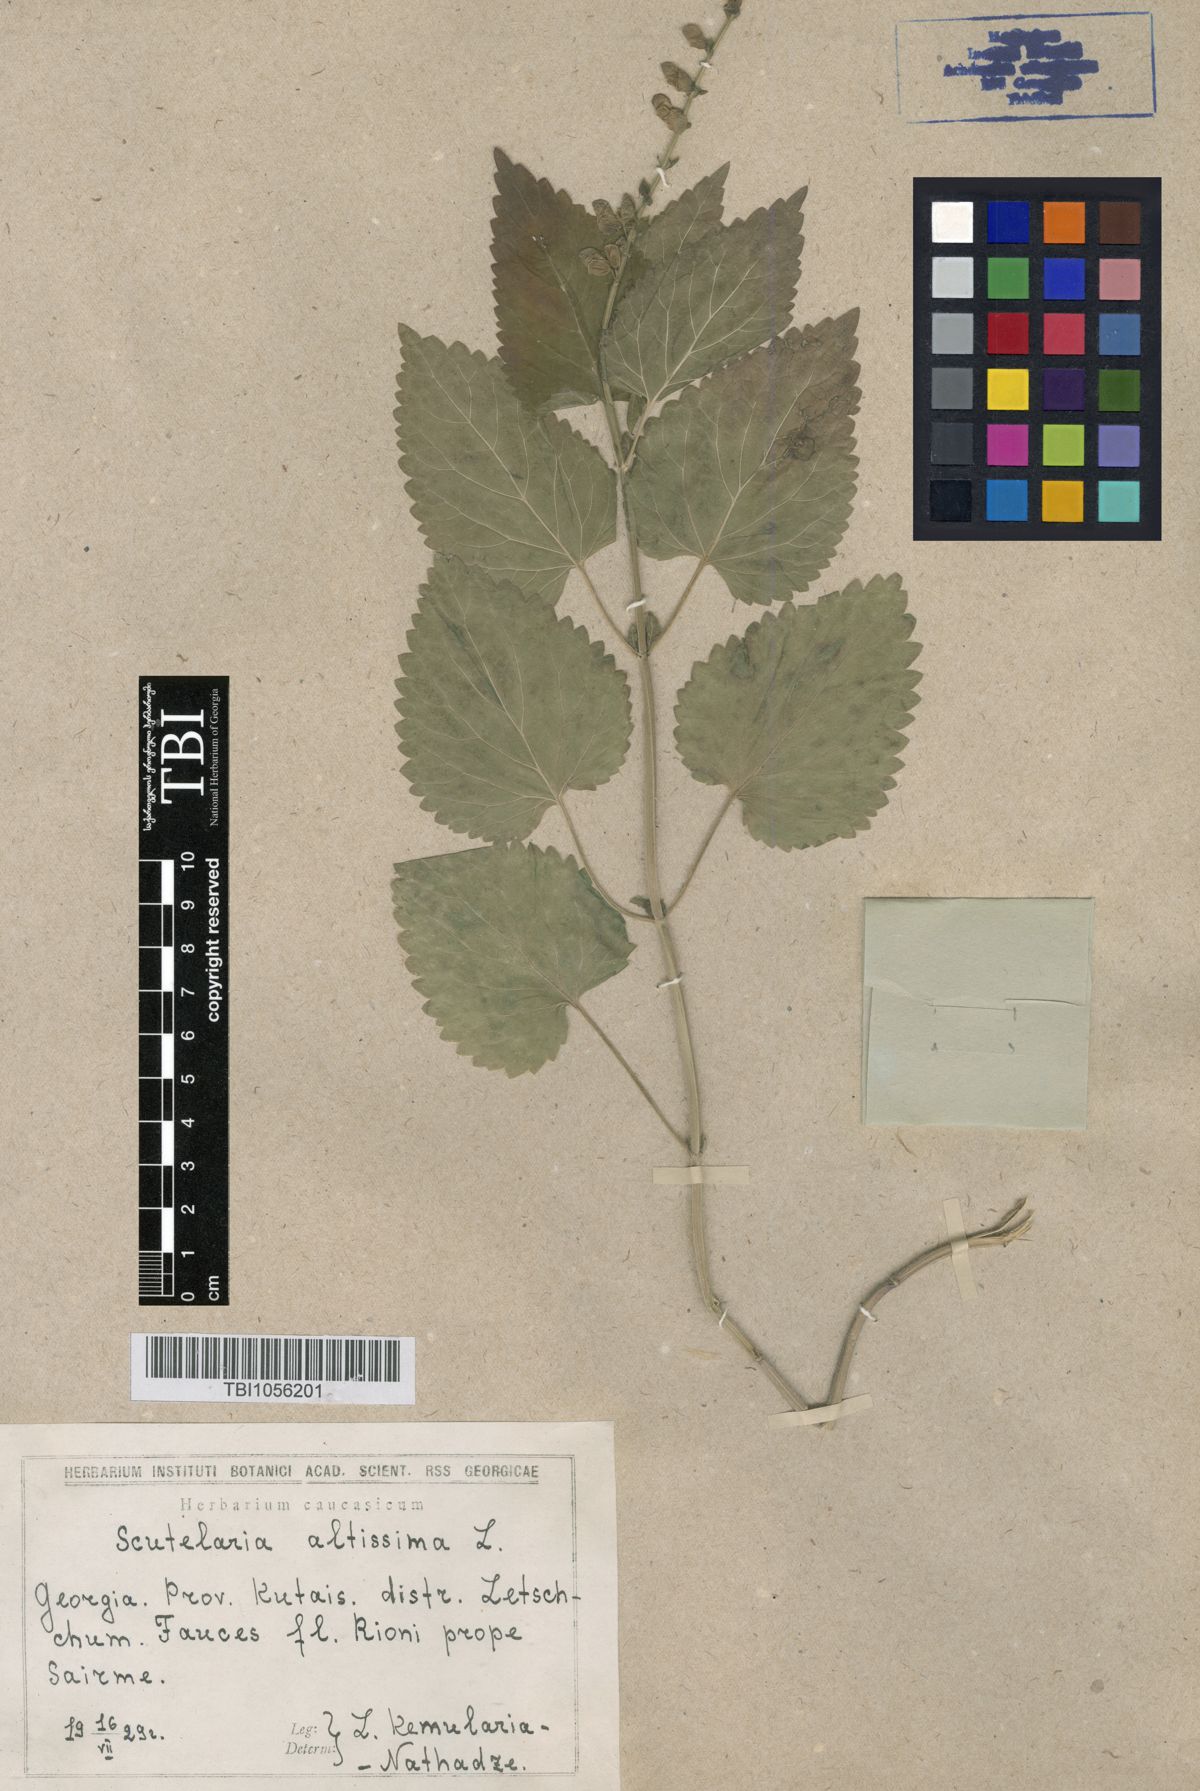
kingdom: Plantae
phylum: Tracheophyta
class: Magnoliopsida
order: Lamiales
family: Lamiaceae
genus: Scutellaria
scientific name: Scutellaria altissima
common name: Somerset skullcap
